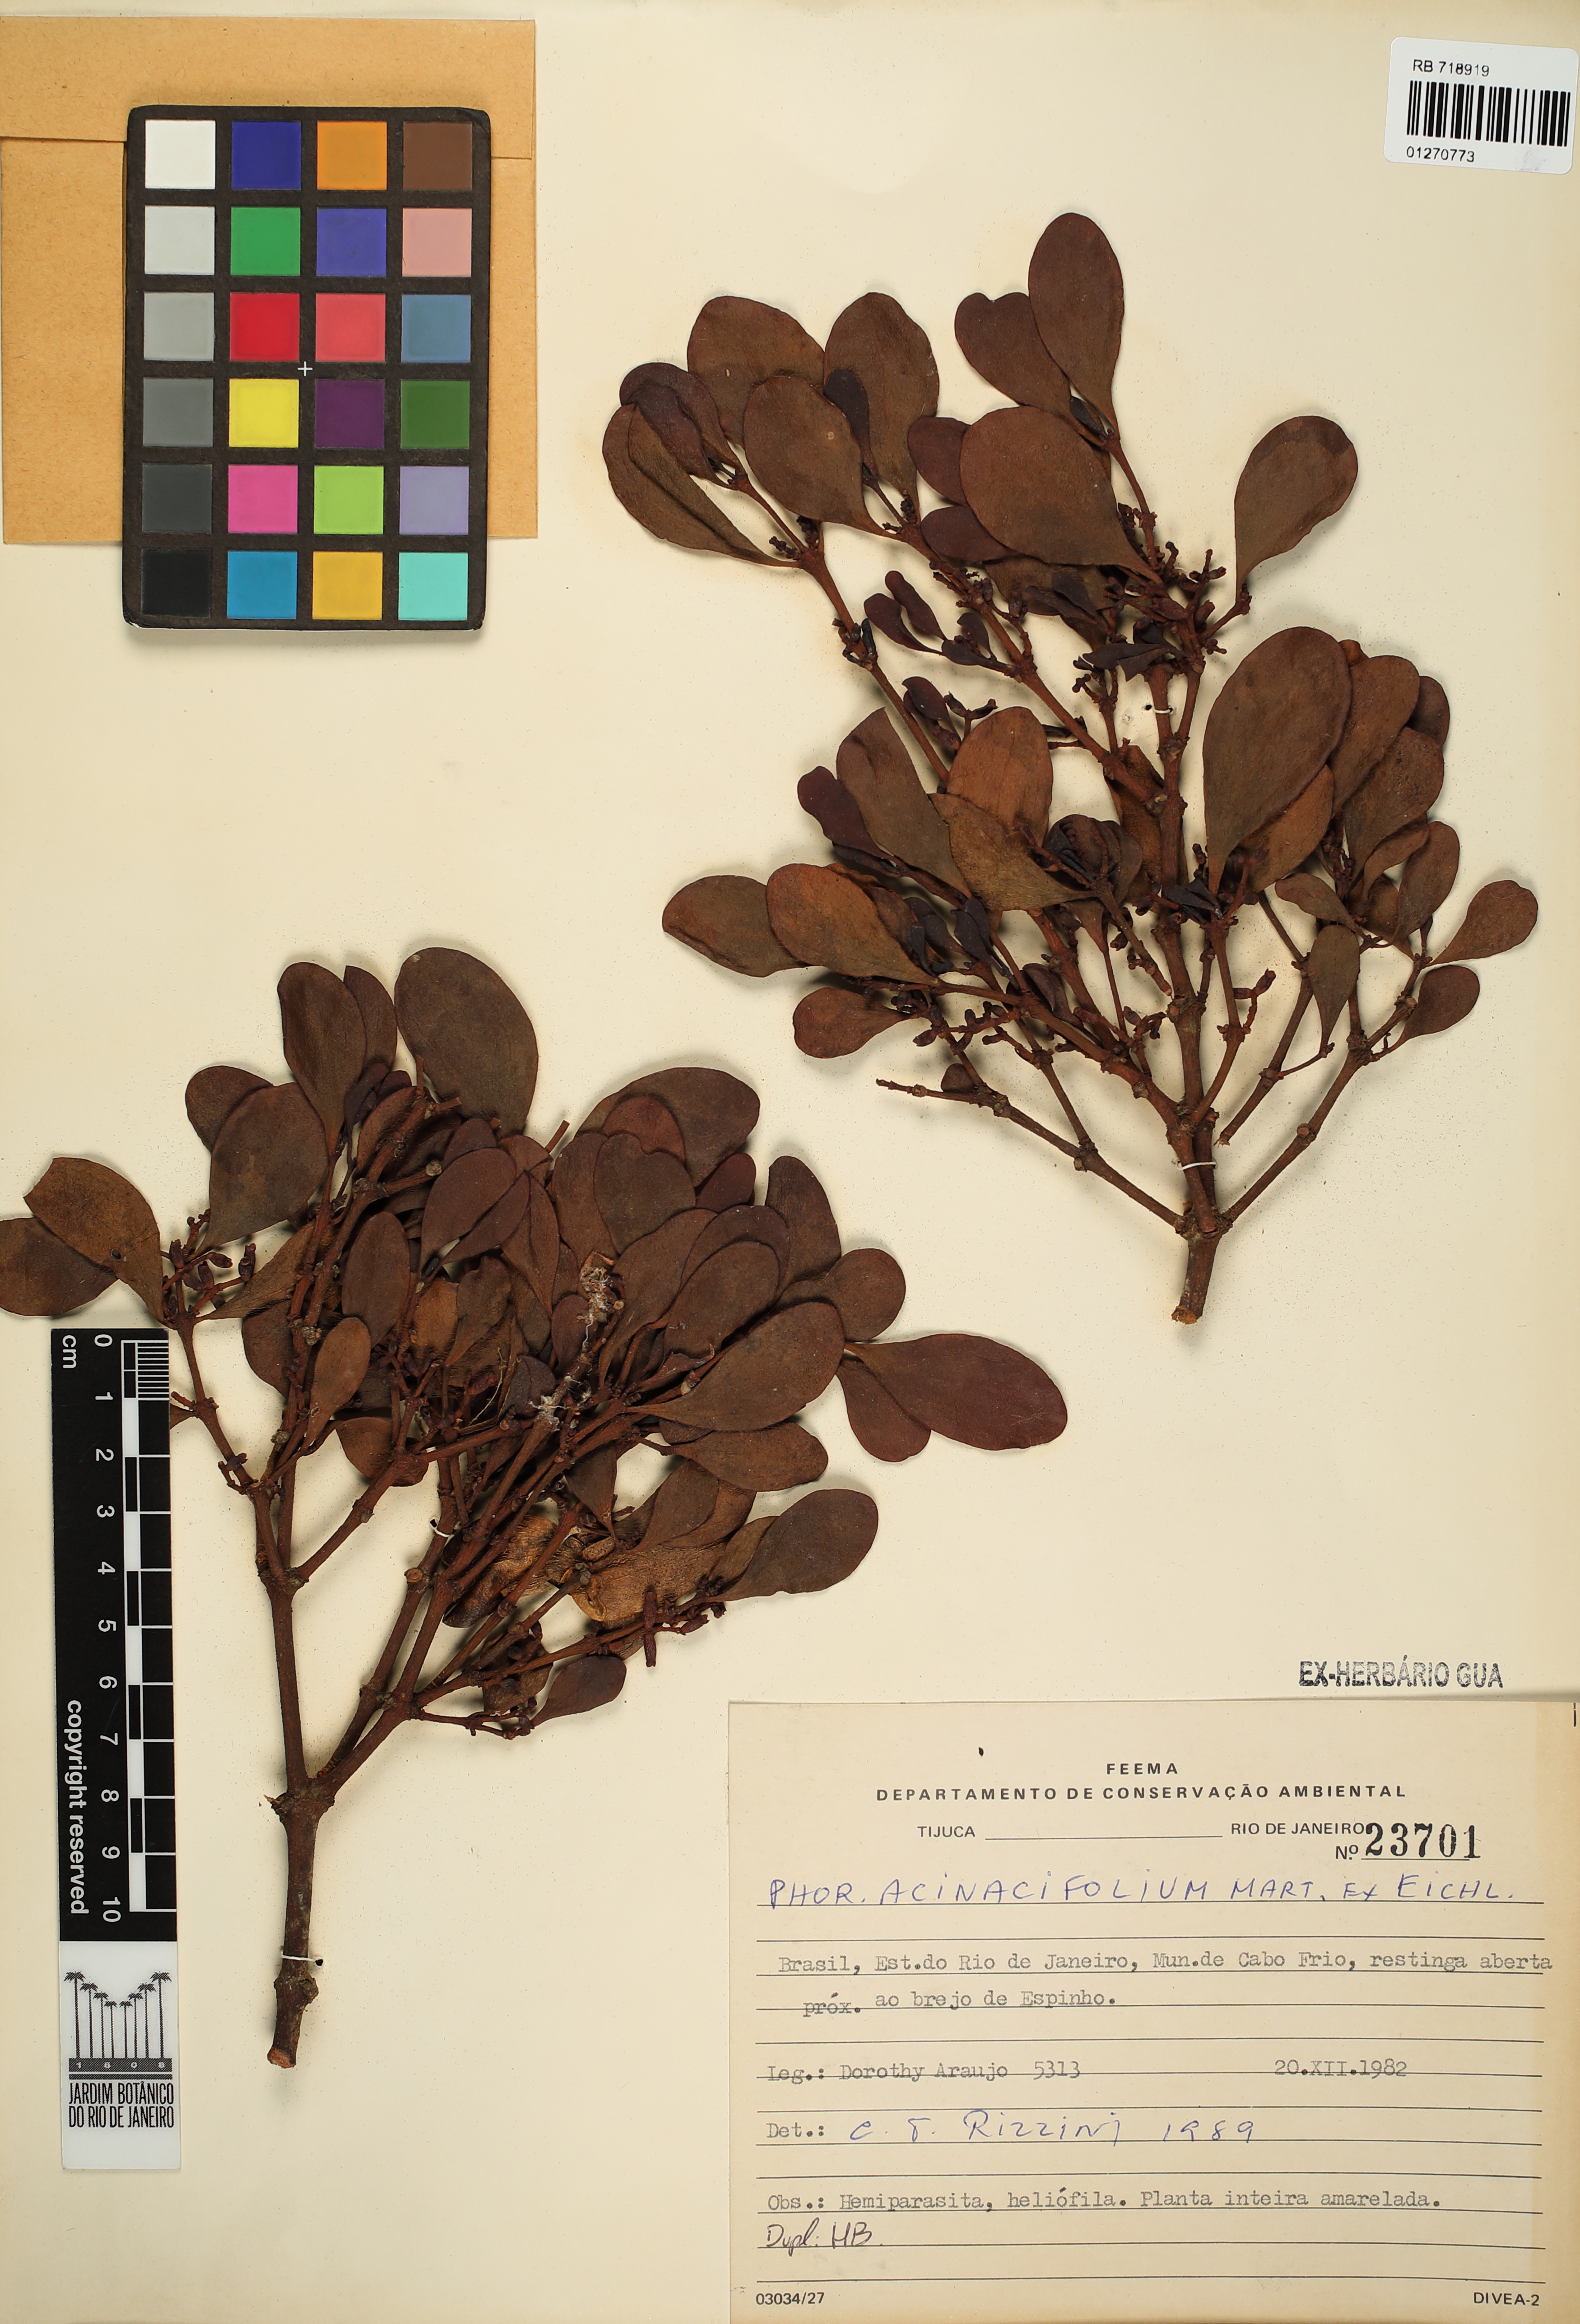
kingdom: Plantae
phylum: Tracheophyta
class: Magnoliopsida
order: Santalales
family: Viscaceae
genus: Phoradendron
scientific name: Phoradendron acinacifolium
